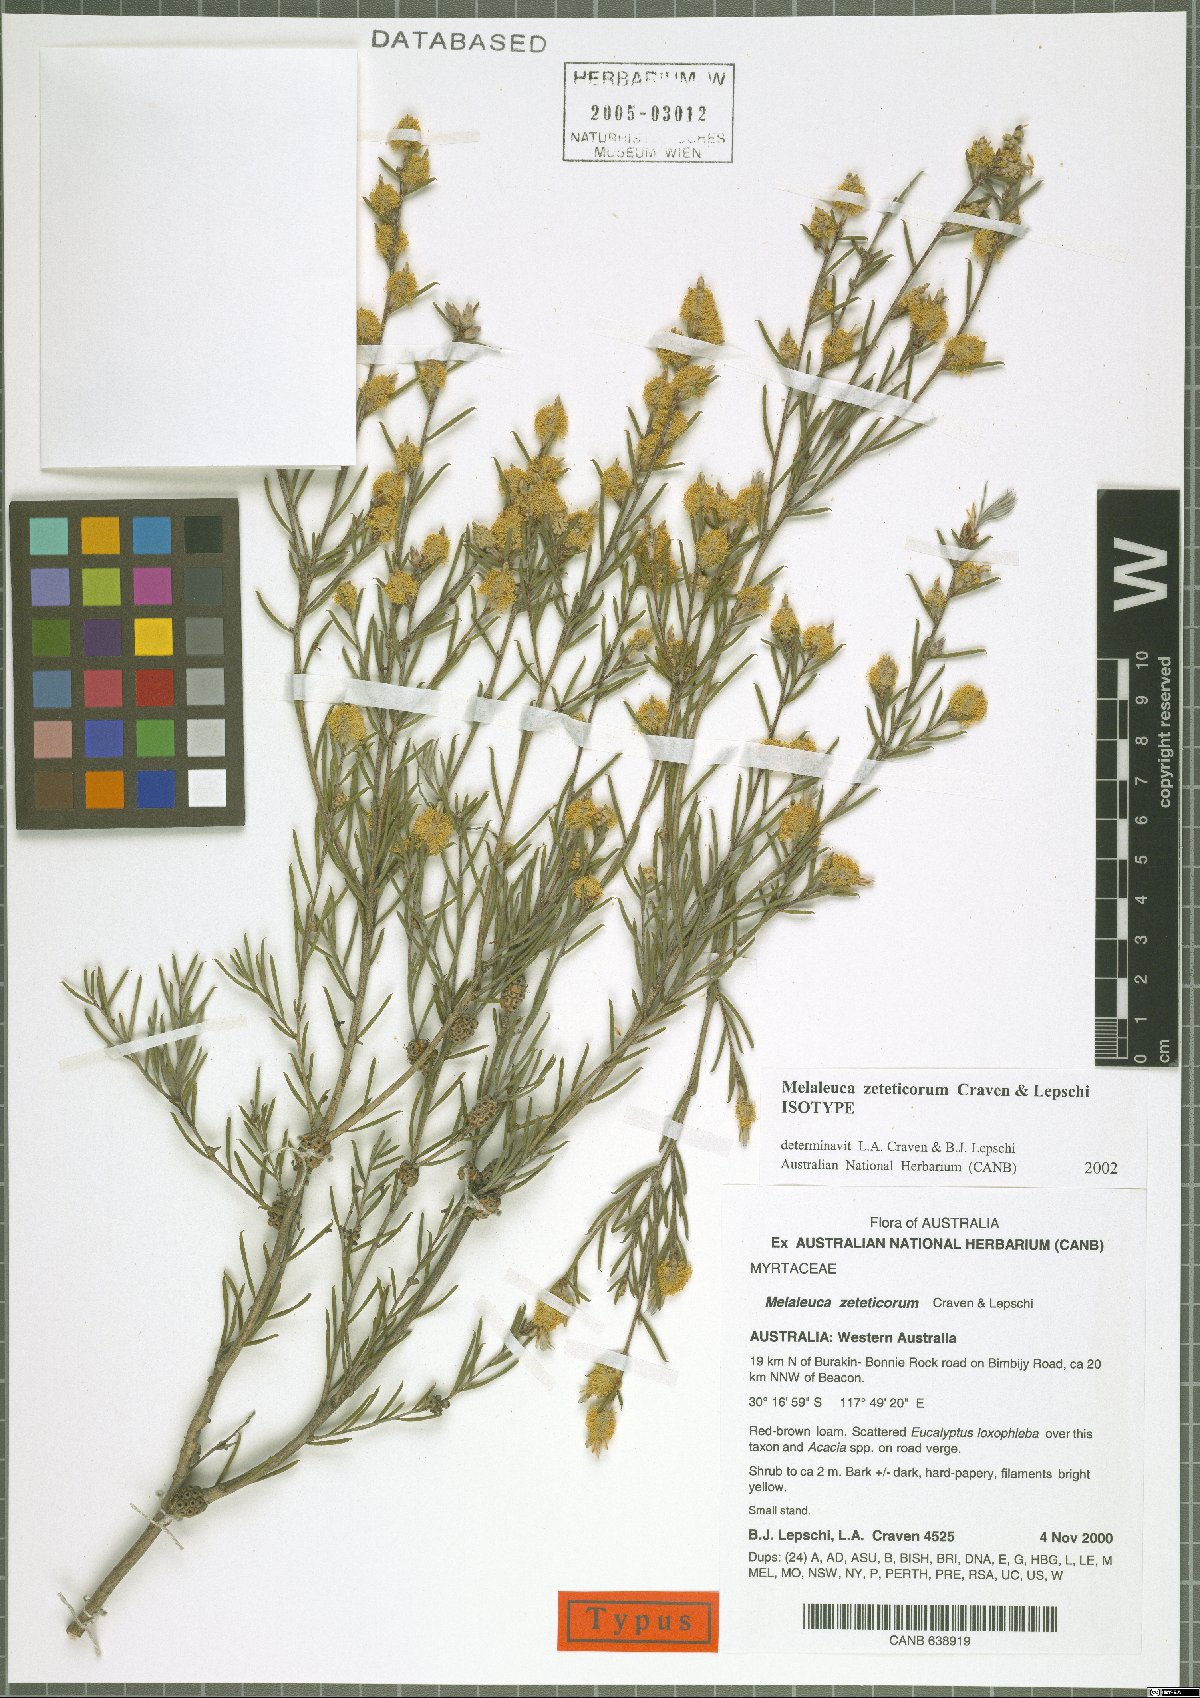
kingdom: Plantae
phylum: Tracheophyta
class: Magnoliopsida
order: Myrtales
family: Myrtaceae
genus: Melaleuca
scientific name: Melaleuca zeteticorum
